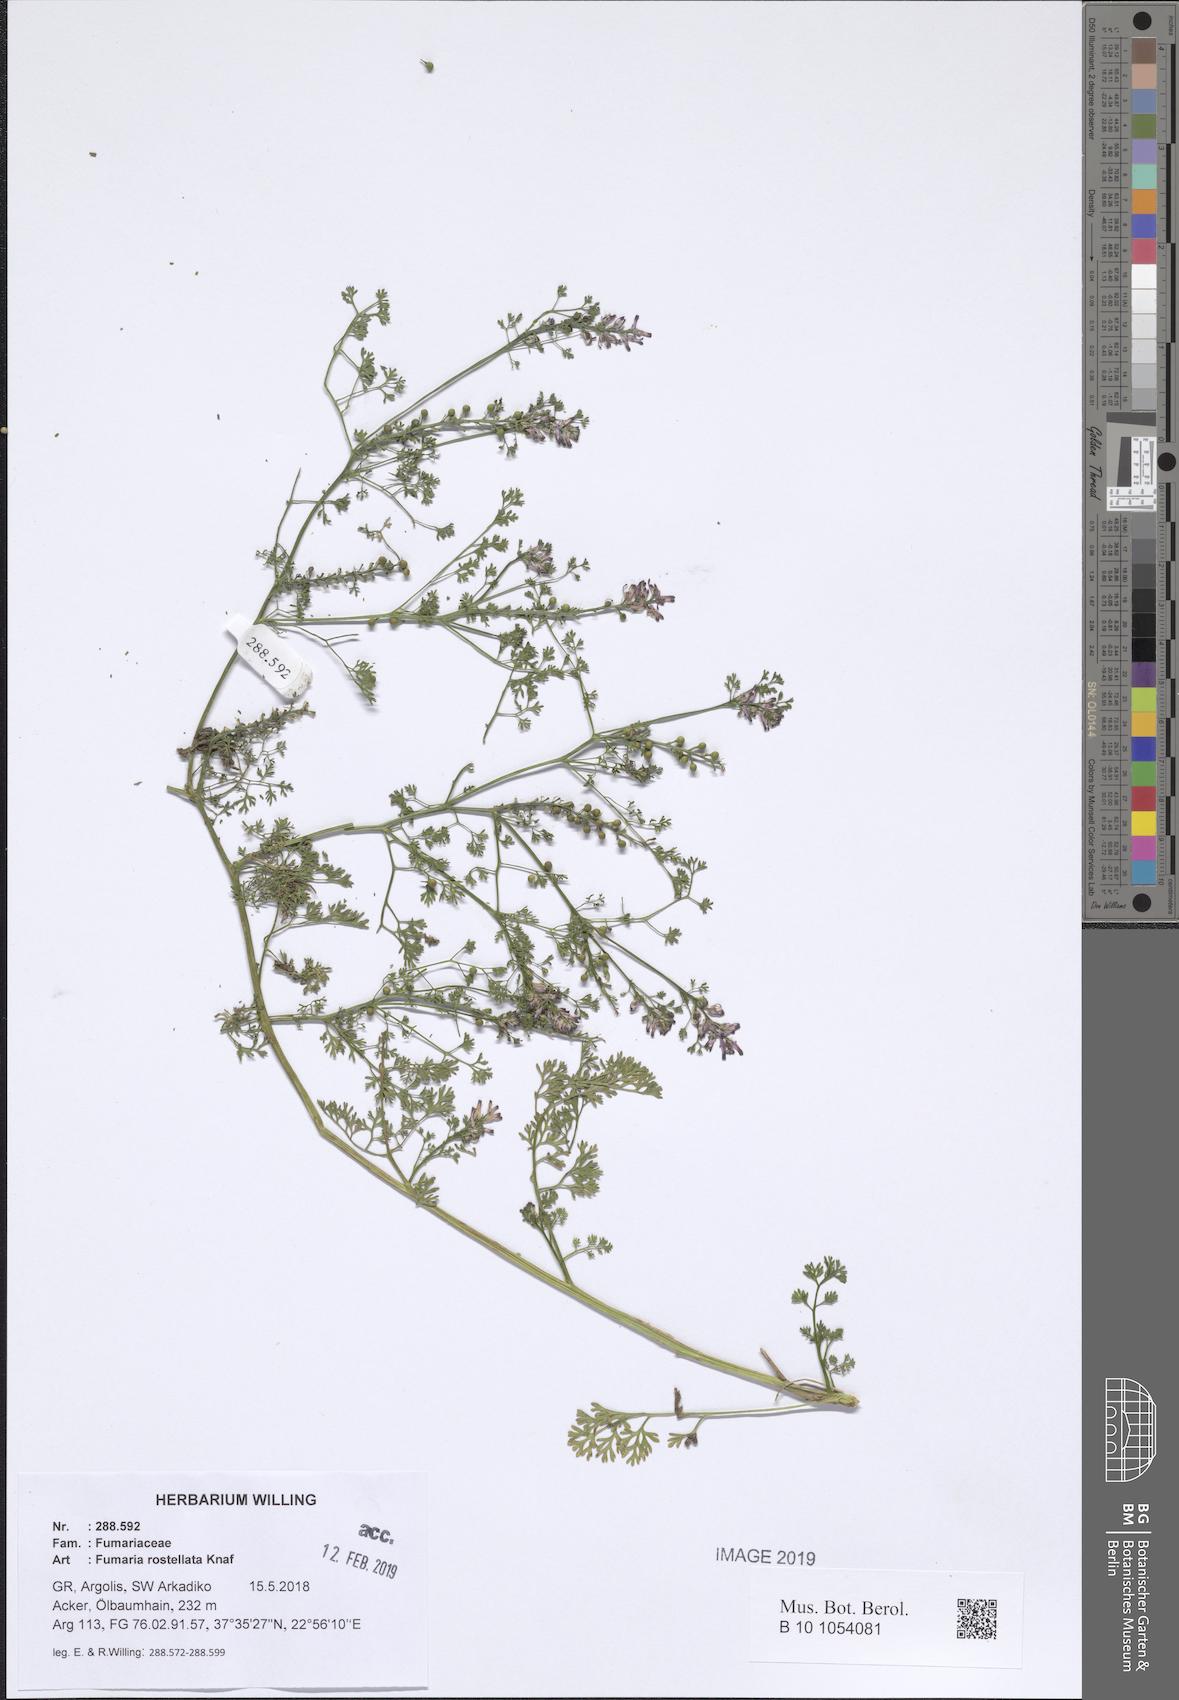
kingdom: Plantae
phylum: Tracheophyta
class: Magnoliopsida
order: Ranunculales
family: Papaveraceae
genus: Fumaria
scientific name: Fumaria rostellata
